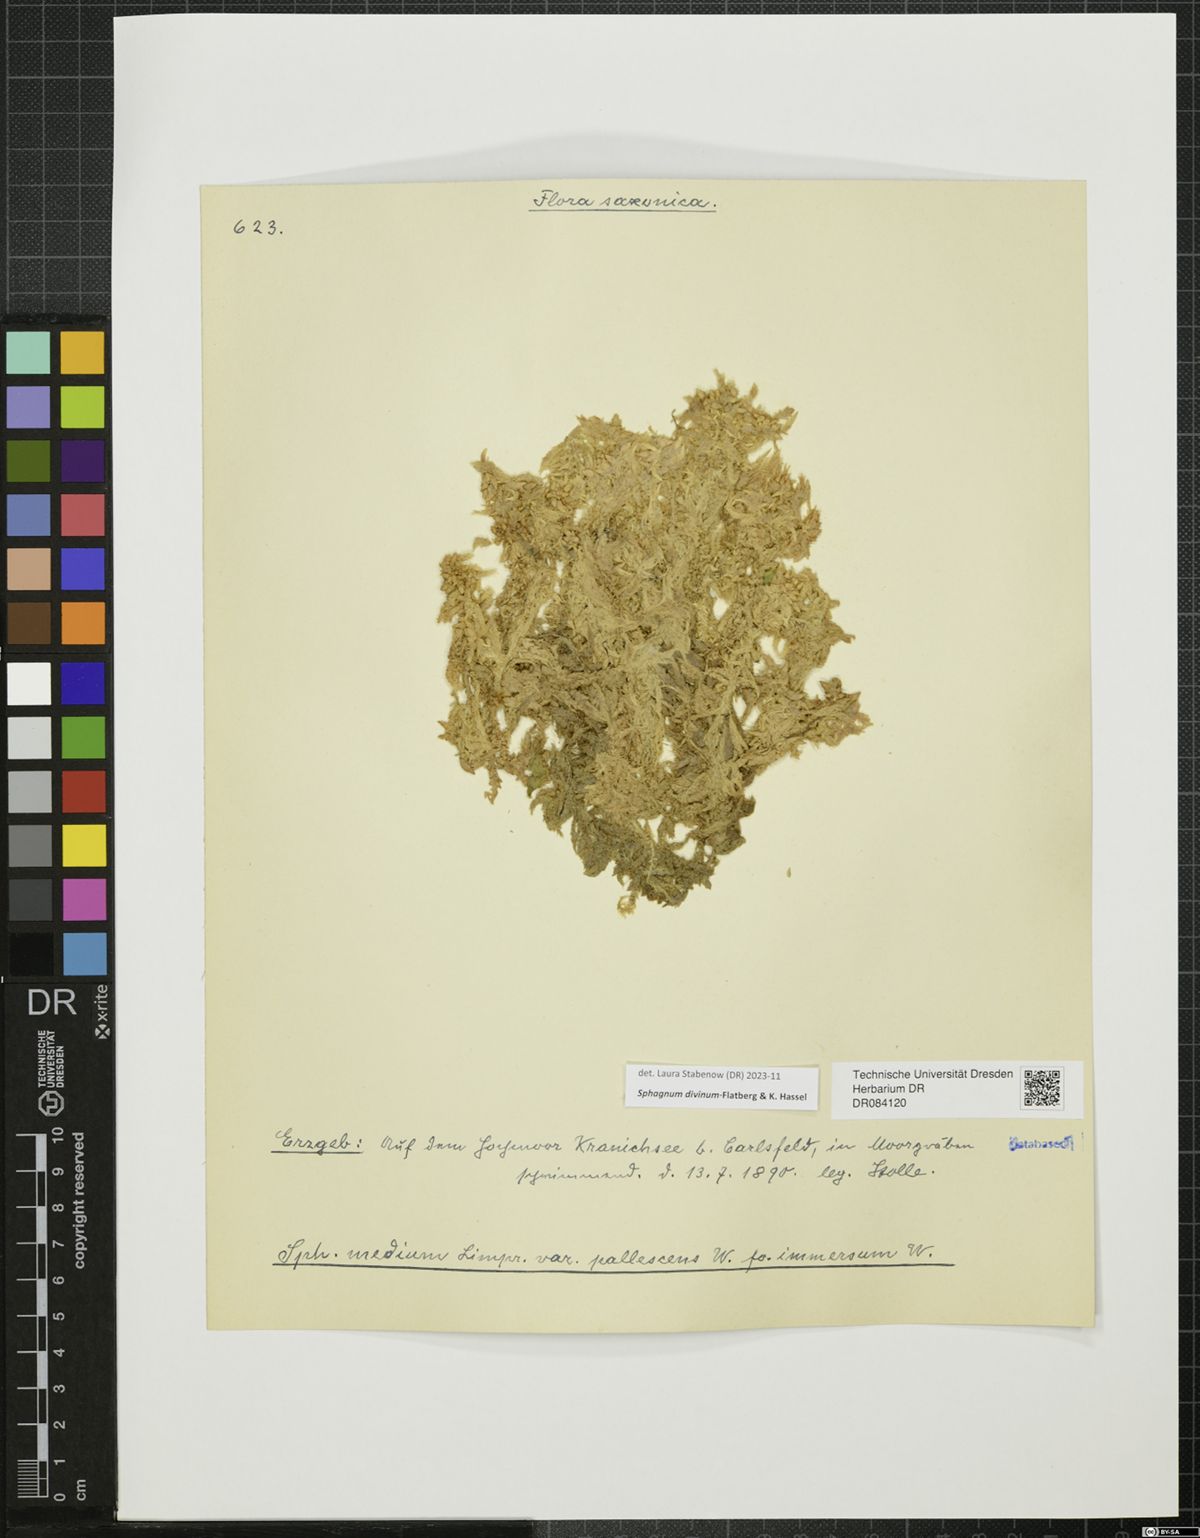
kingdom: Plantae
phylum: Bryophyta
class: Sphagnopsida
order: Sphagnales
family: Sphagnaceae
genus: Sphagnum
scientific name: Sphagnum divinum
